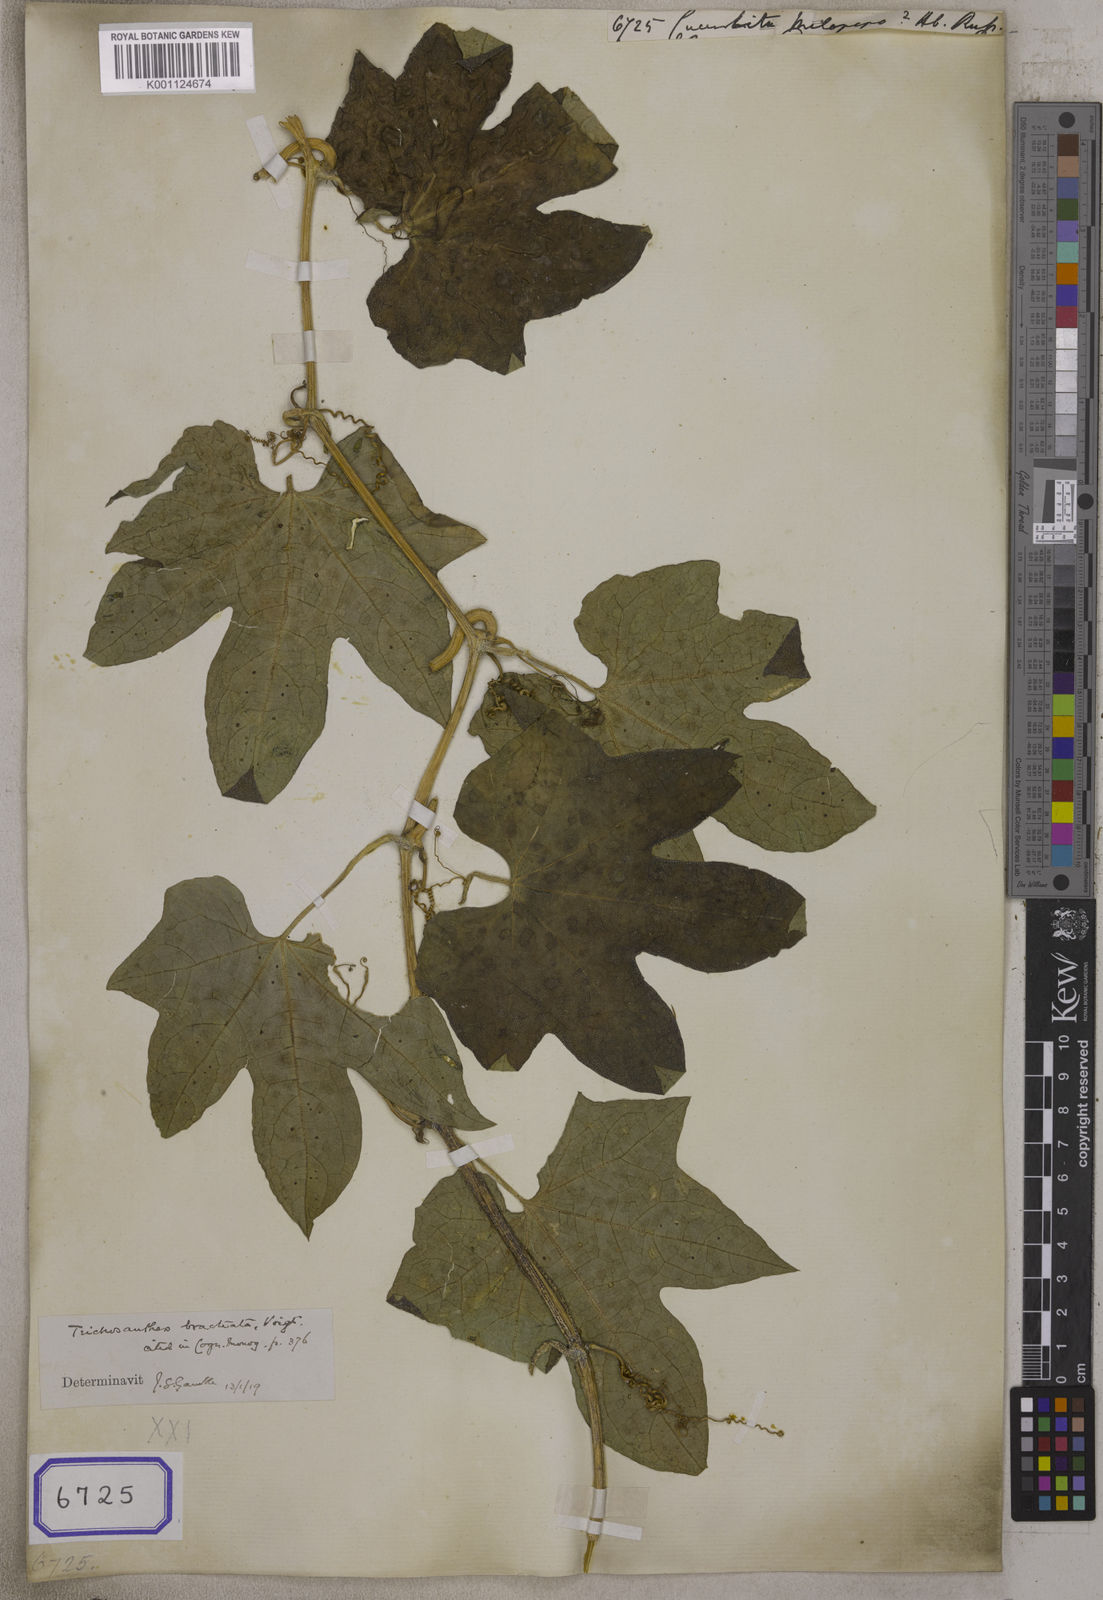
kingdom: Plantae
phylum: Tracheophyta
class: Magnoliopsida
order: Cucurbitales
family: Cucurbitaceae
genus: Cucurbita
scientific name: Cucurbita melopepo
